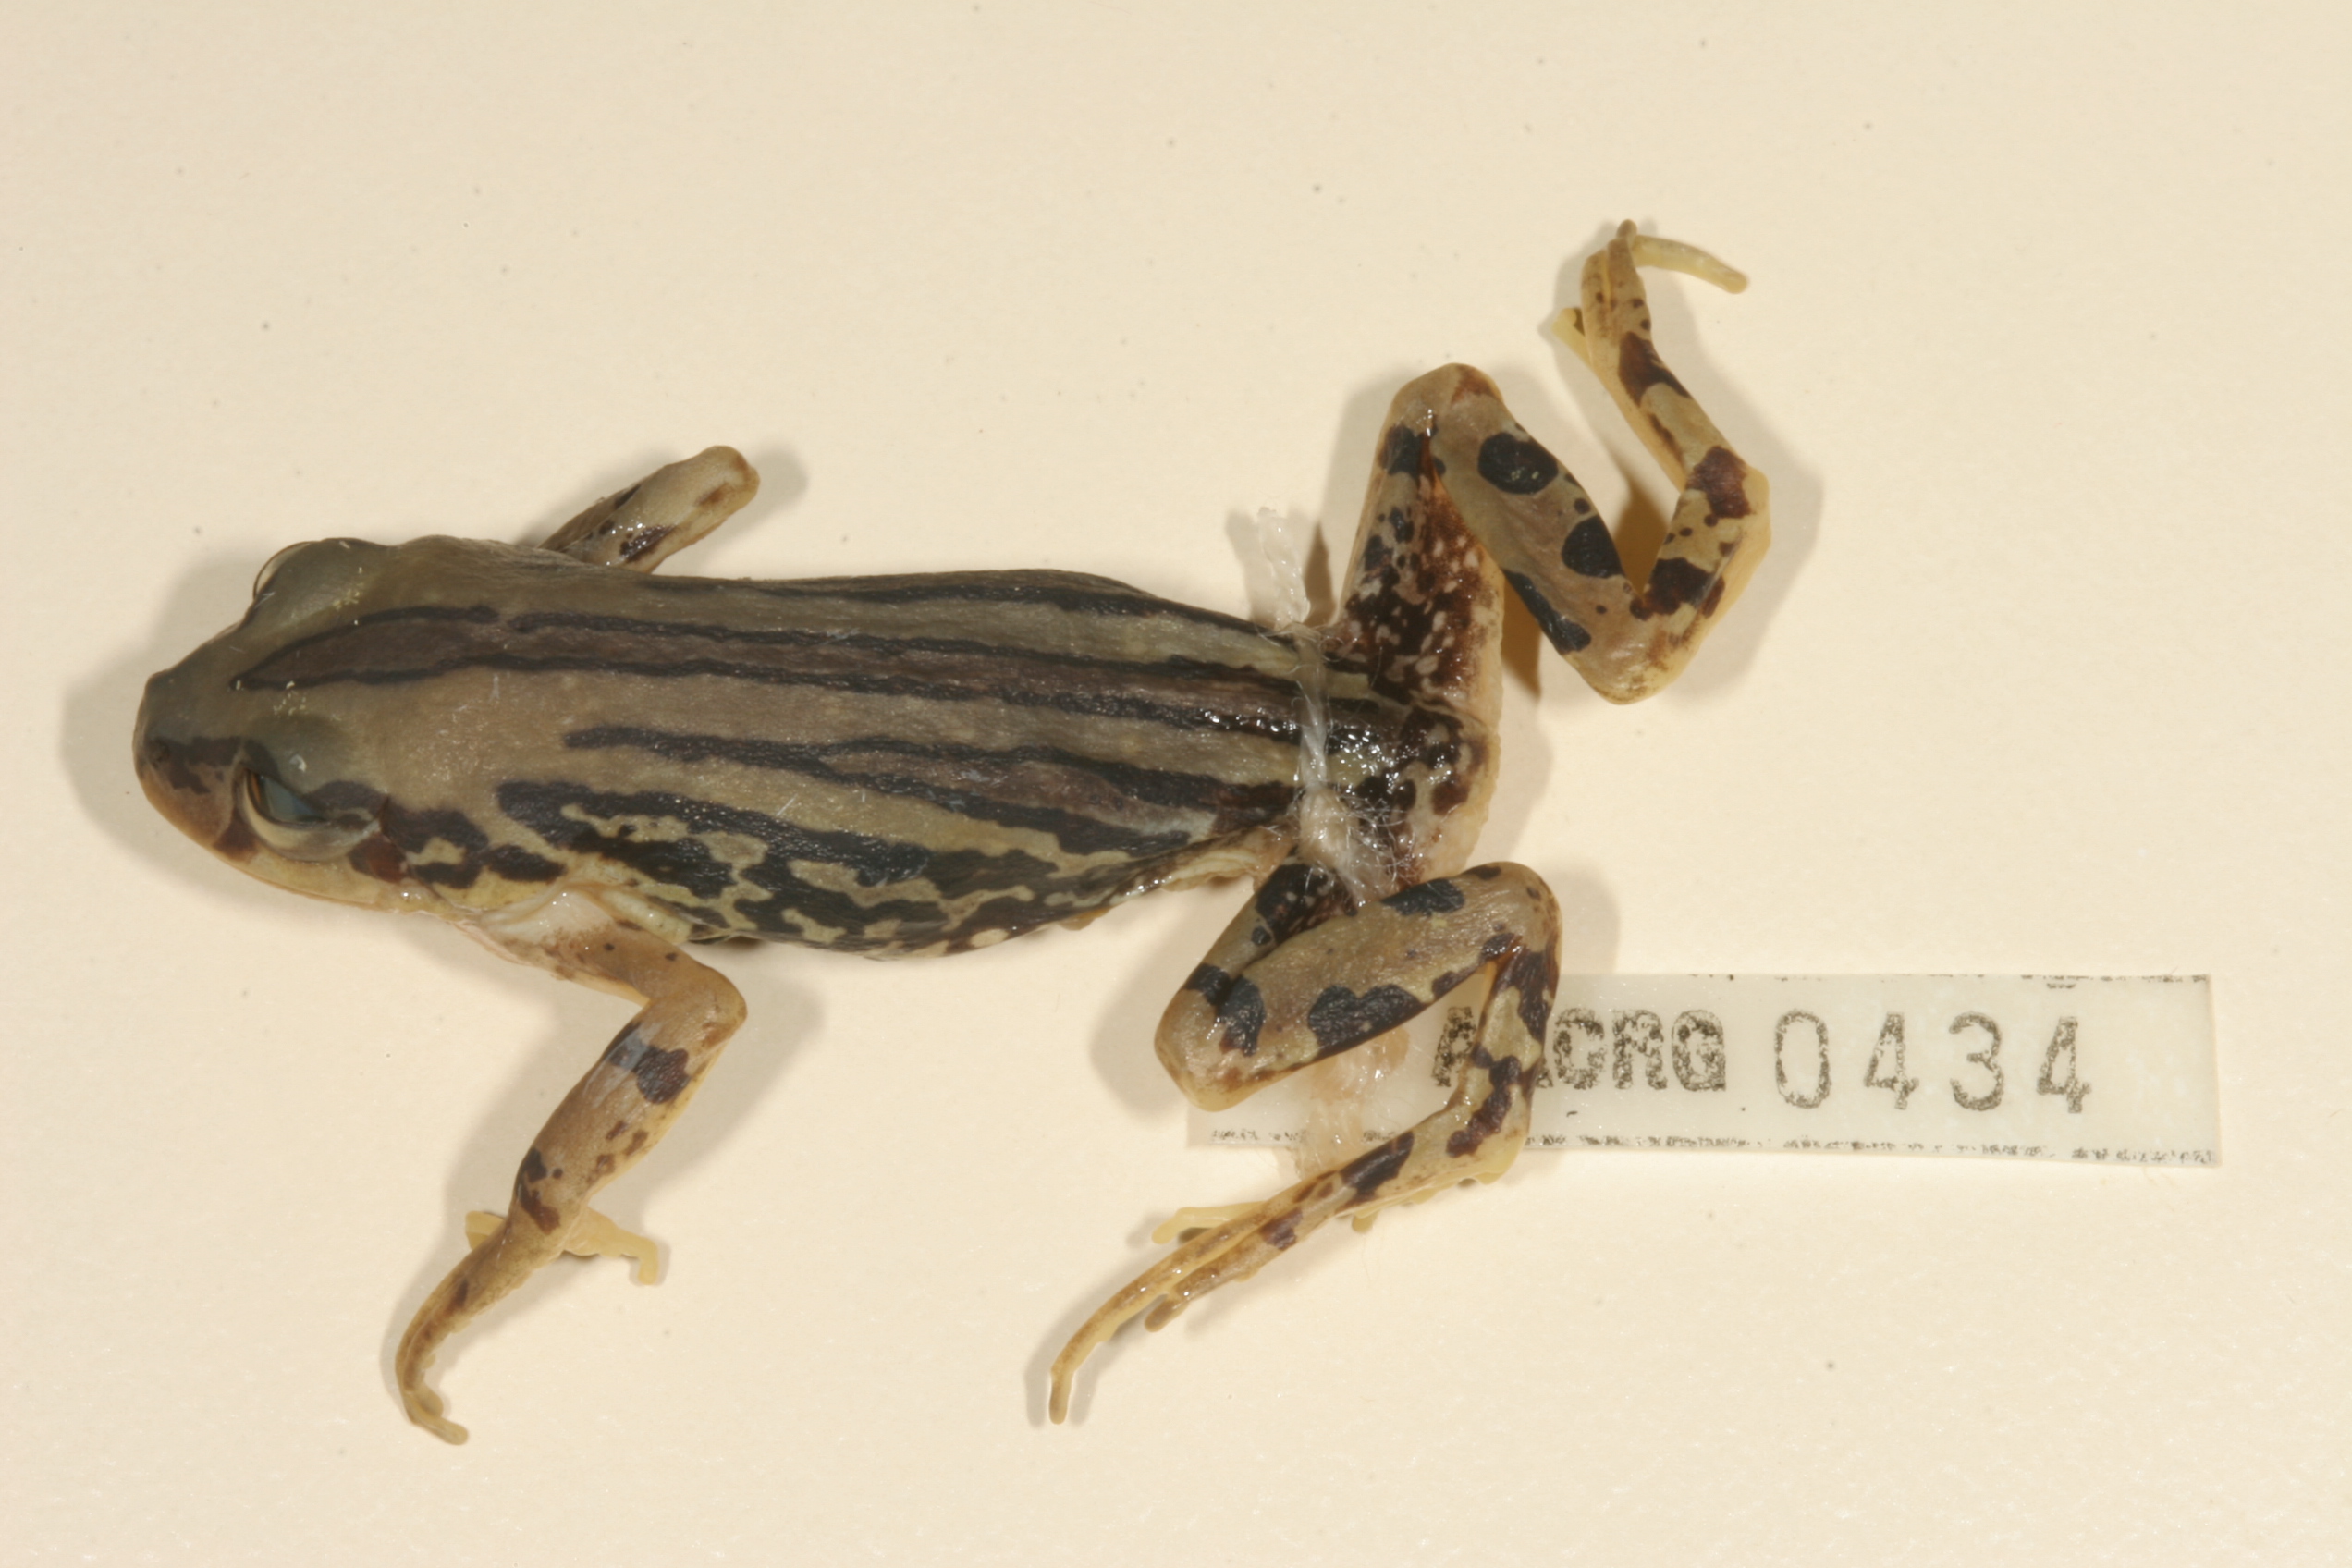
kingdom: Animalia
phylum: Chordata
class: Amphibia
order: Anura
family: Hyperoliidae
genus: Semnodactylus
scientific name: Semnodactylus wealii
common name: Weal's frog
